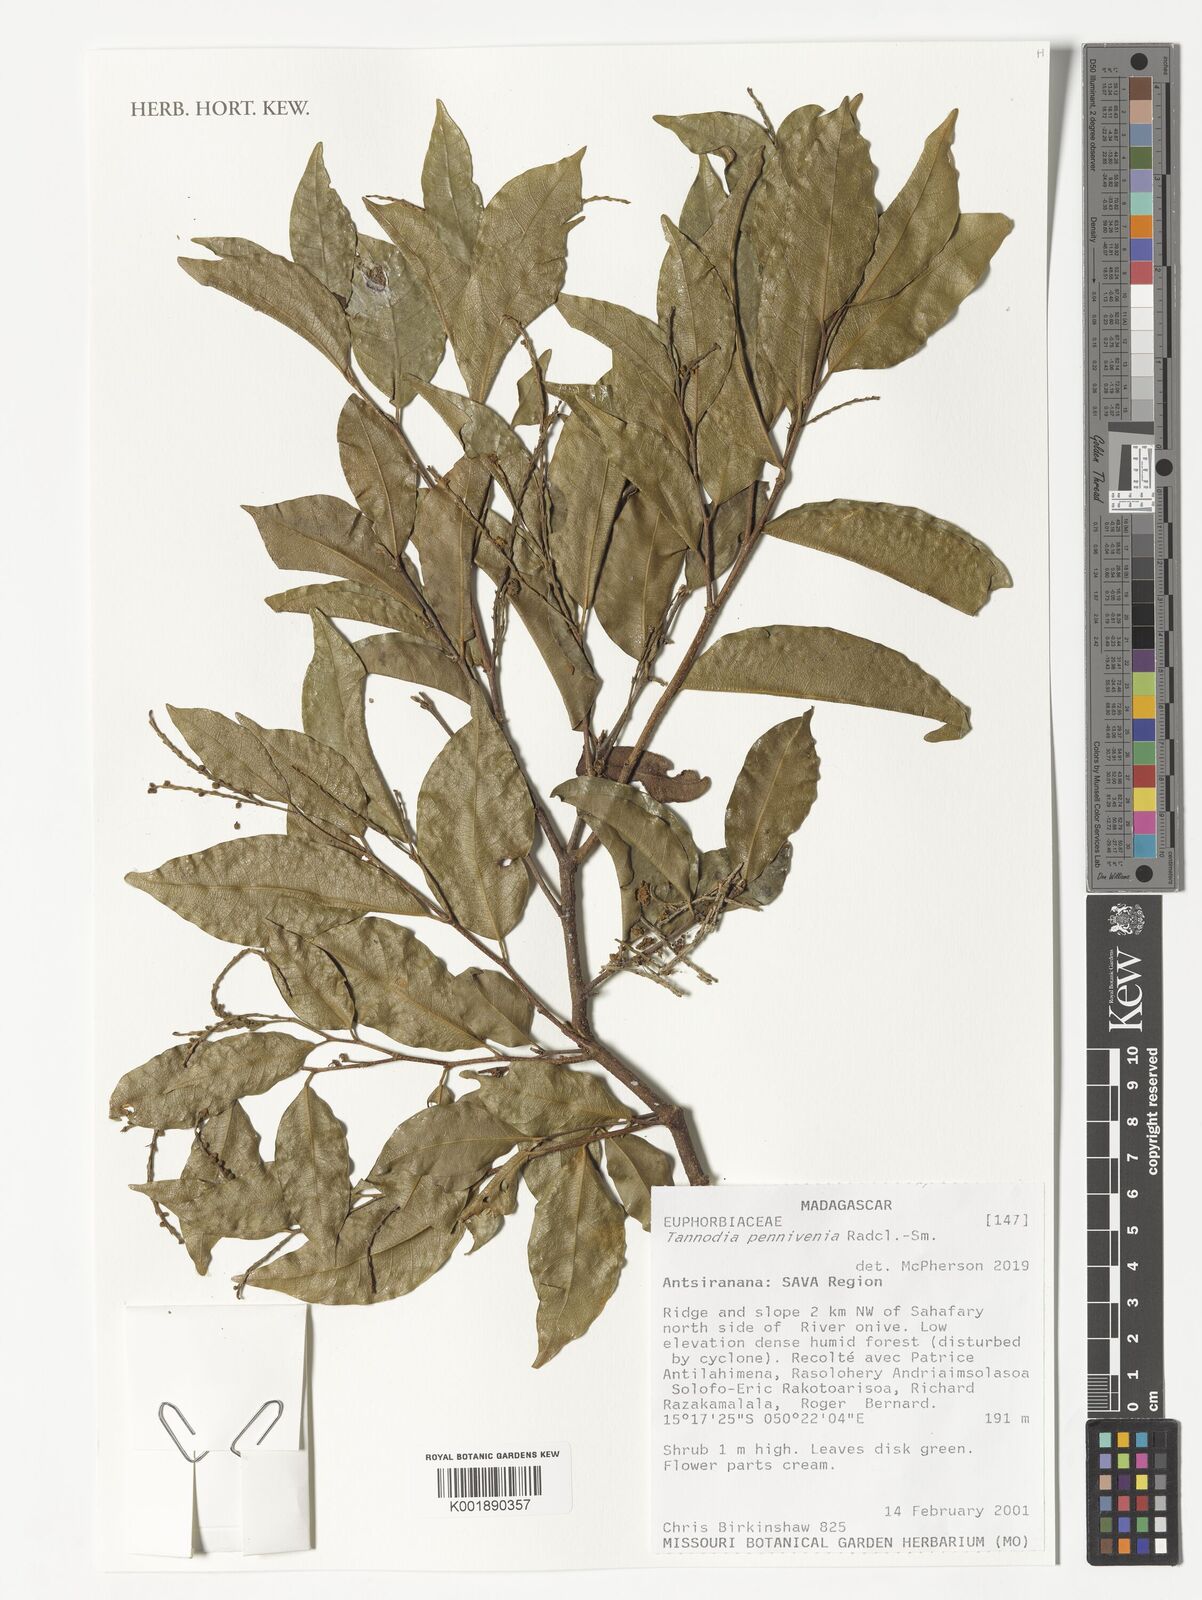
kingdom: Plantae
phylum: Tracheophyta
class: Magnoliopsida
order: Malpighiales
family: Euphorbiaceae
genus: Tannodia
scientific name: Tannodia pennivenia
